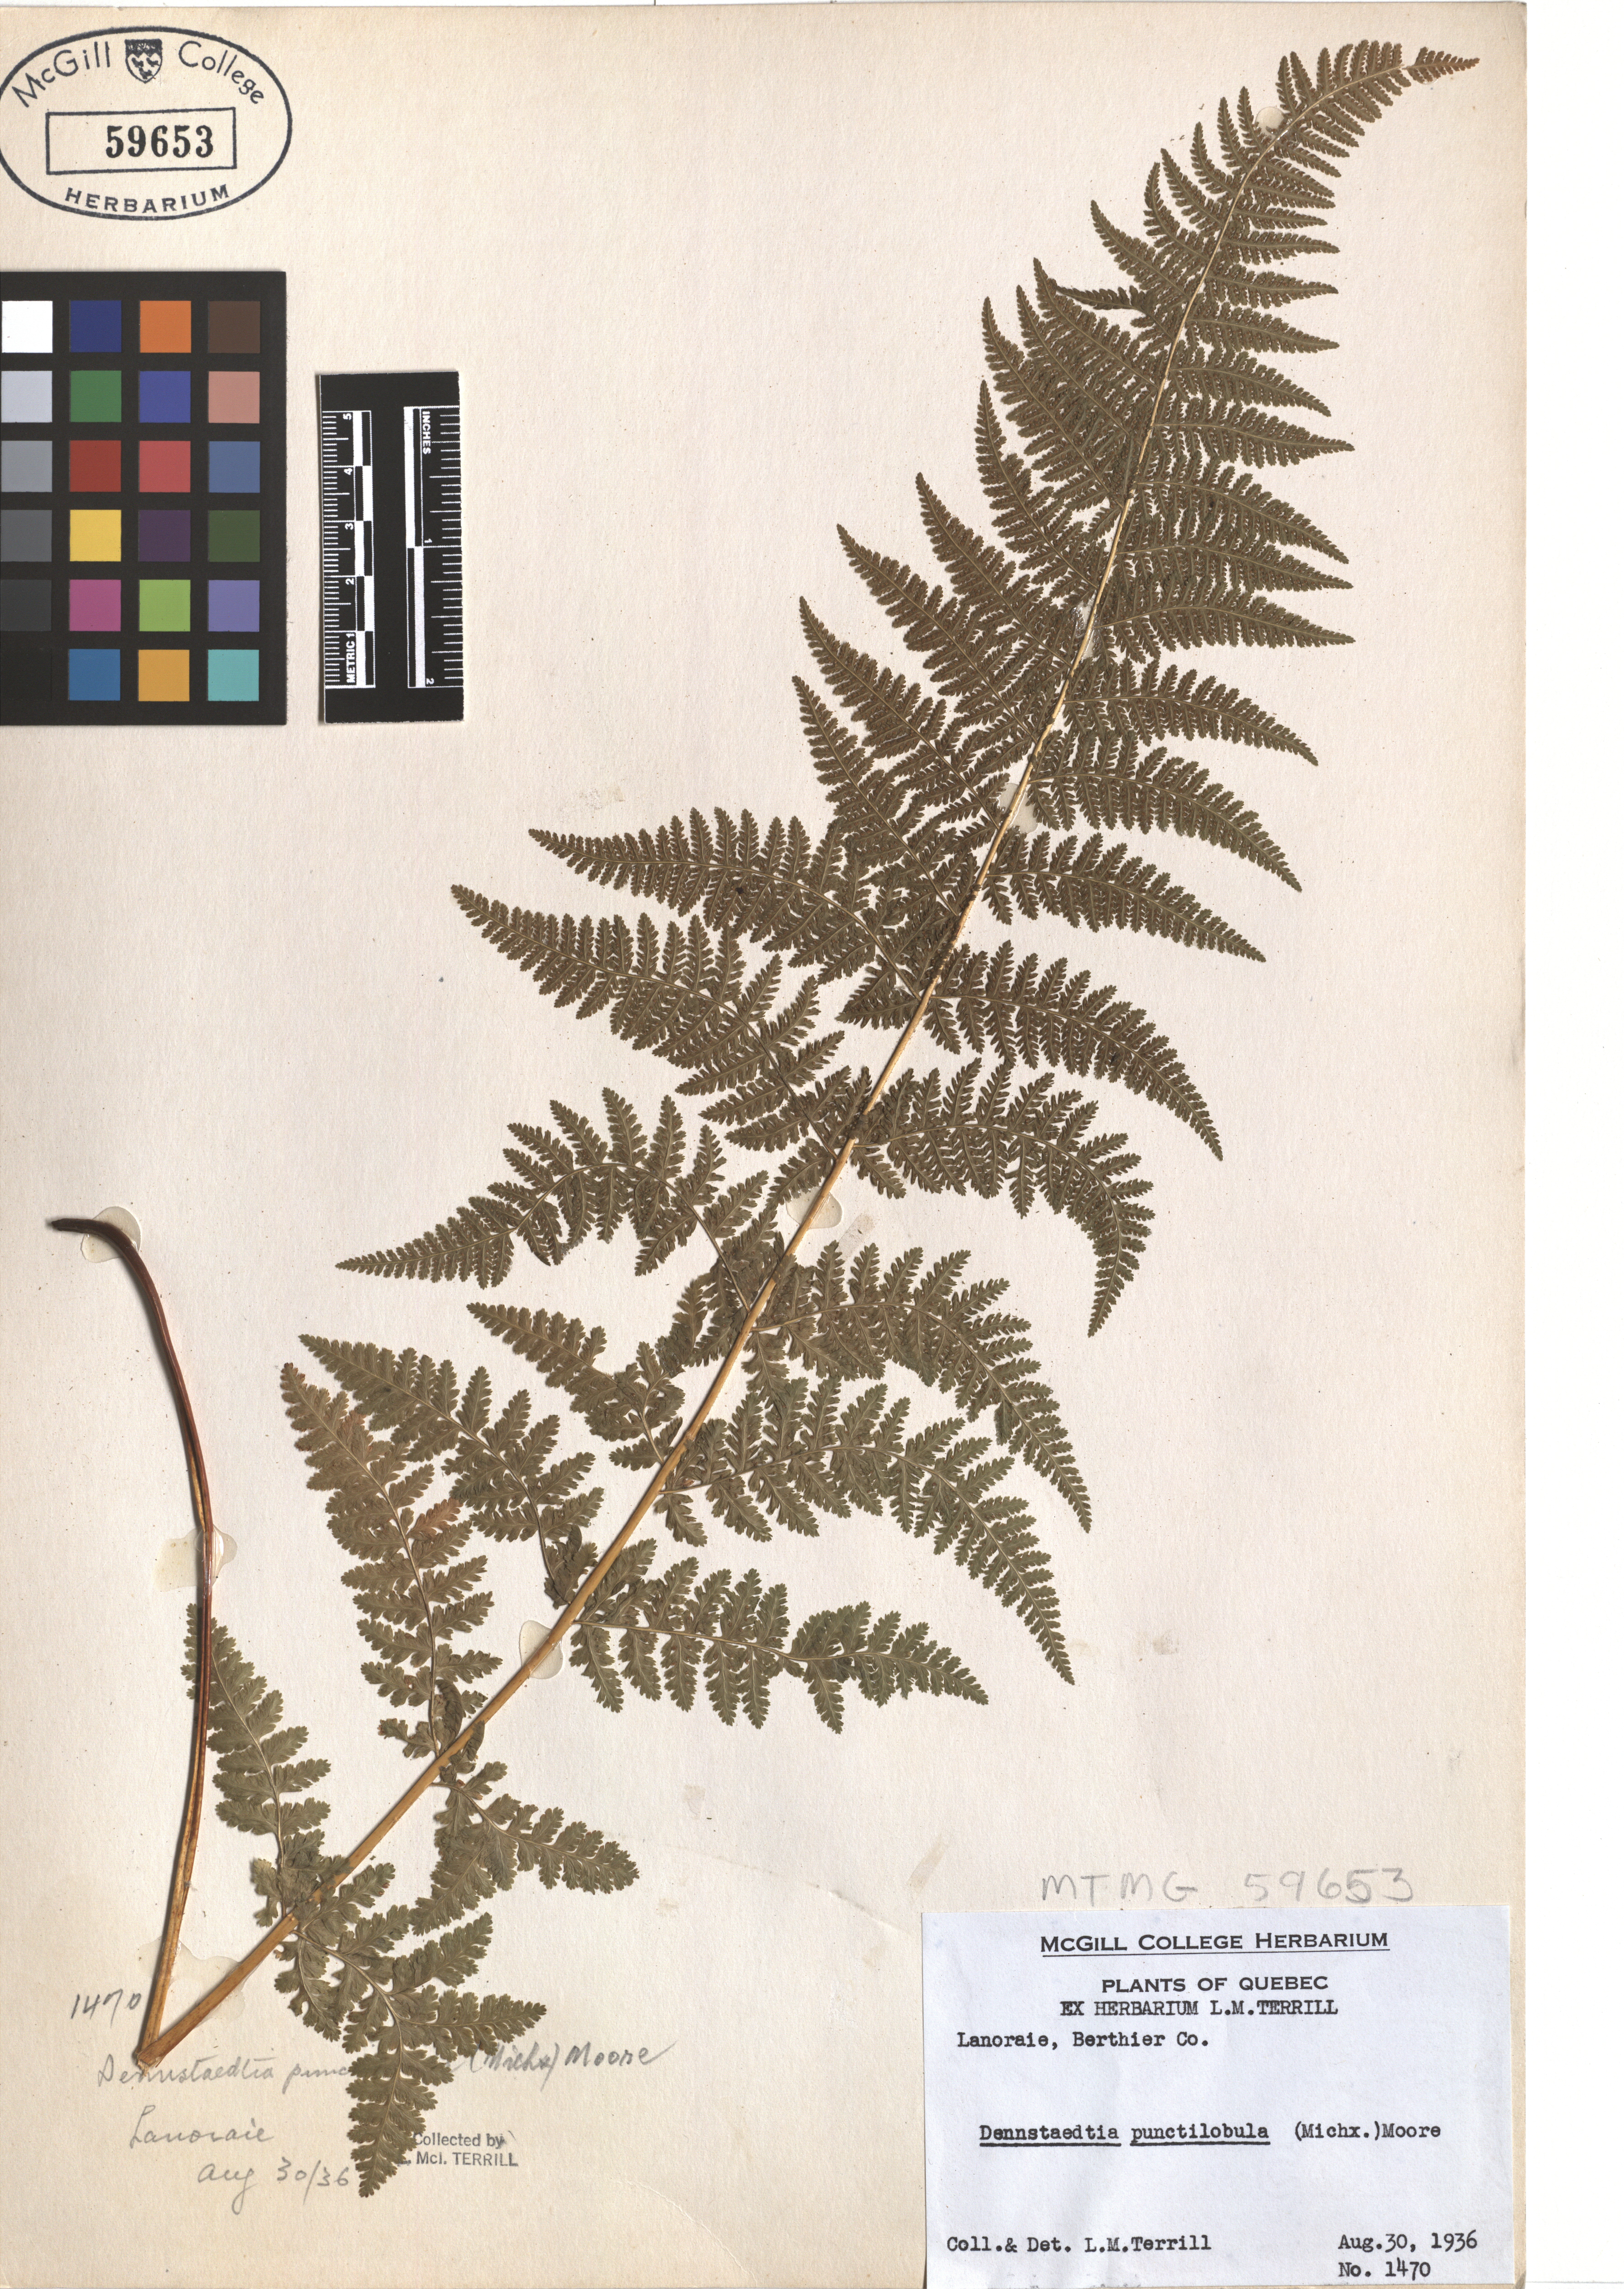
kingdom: Plantae
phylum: Tracheophyta
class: Polypodiopsida
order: Polypodiales
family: Dennstaedtiaceae
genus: Sitobolium
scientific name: Sitobolium punctilobum
